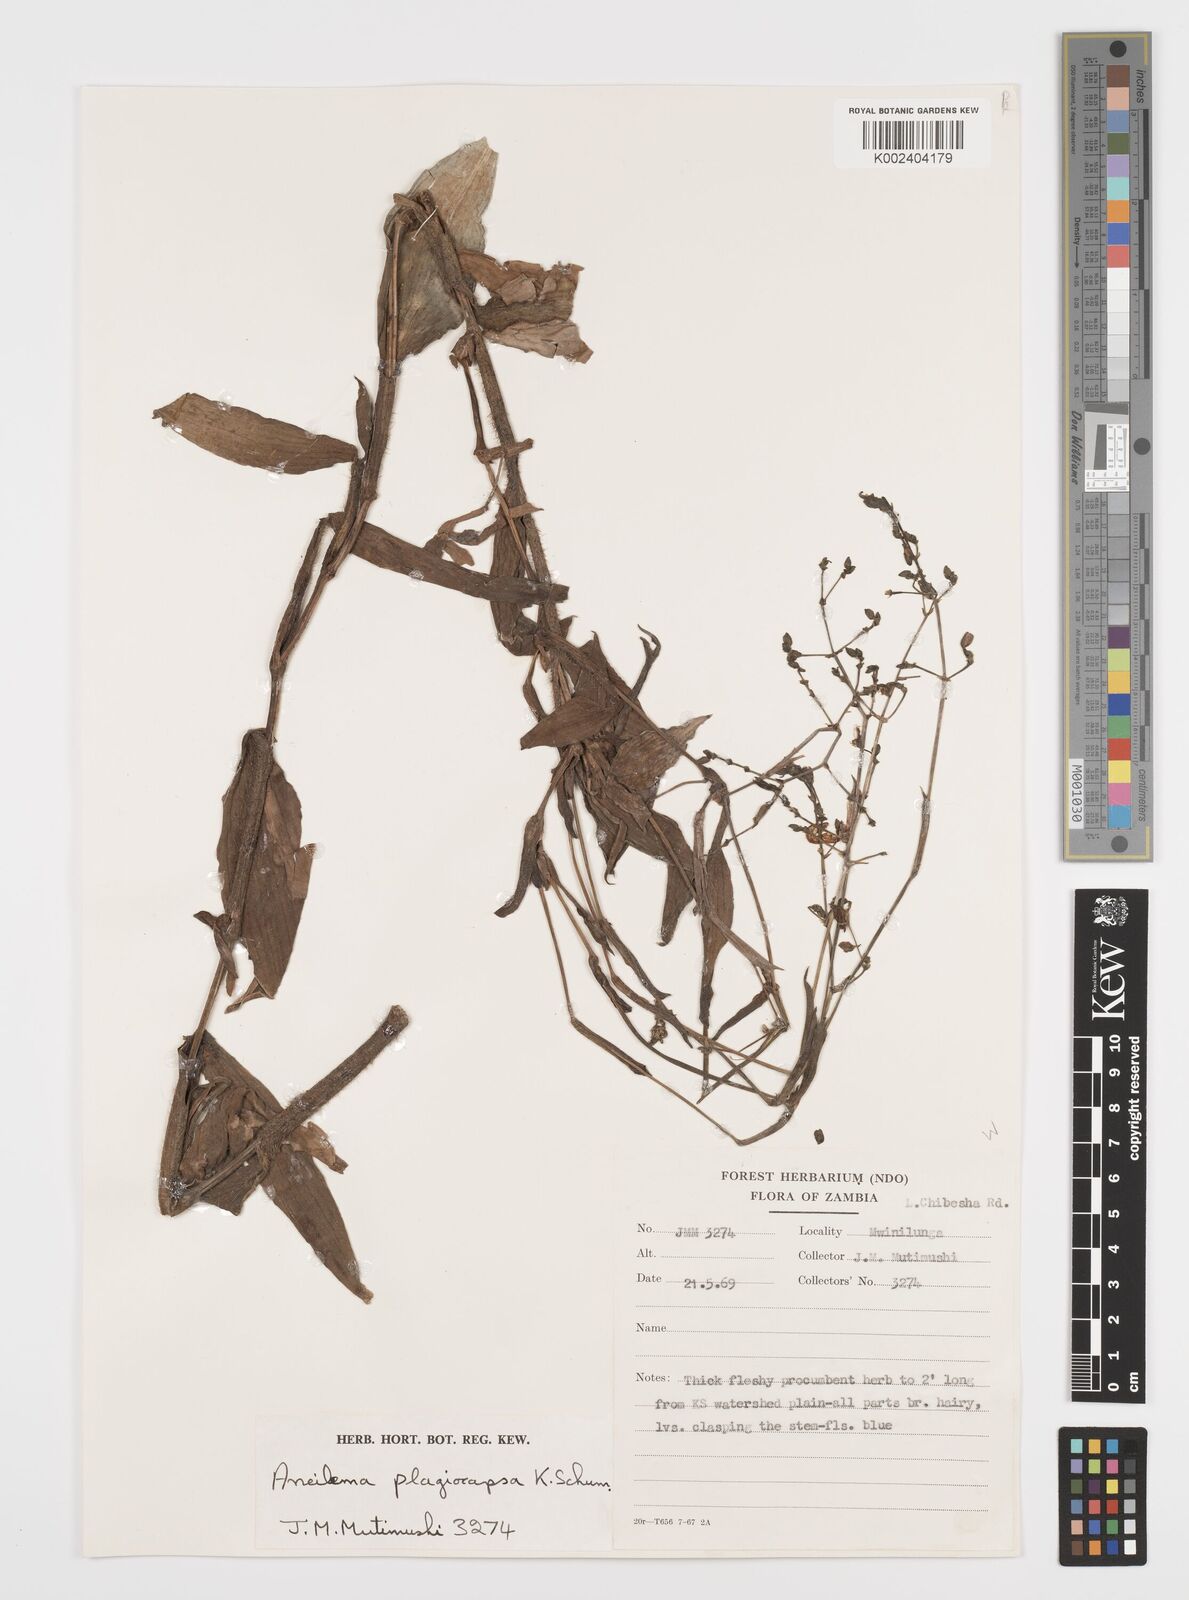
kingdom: Plantae
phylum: Tracheophyta
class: Liliopsida
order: Commelinales
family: Commelinaceae
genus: Aneilema
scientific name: Aneilema plagiocapsa
